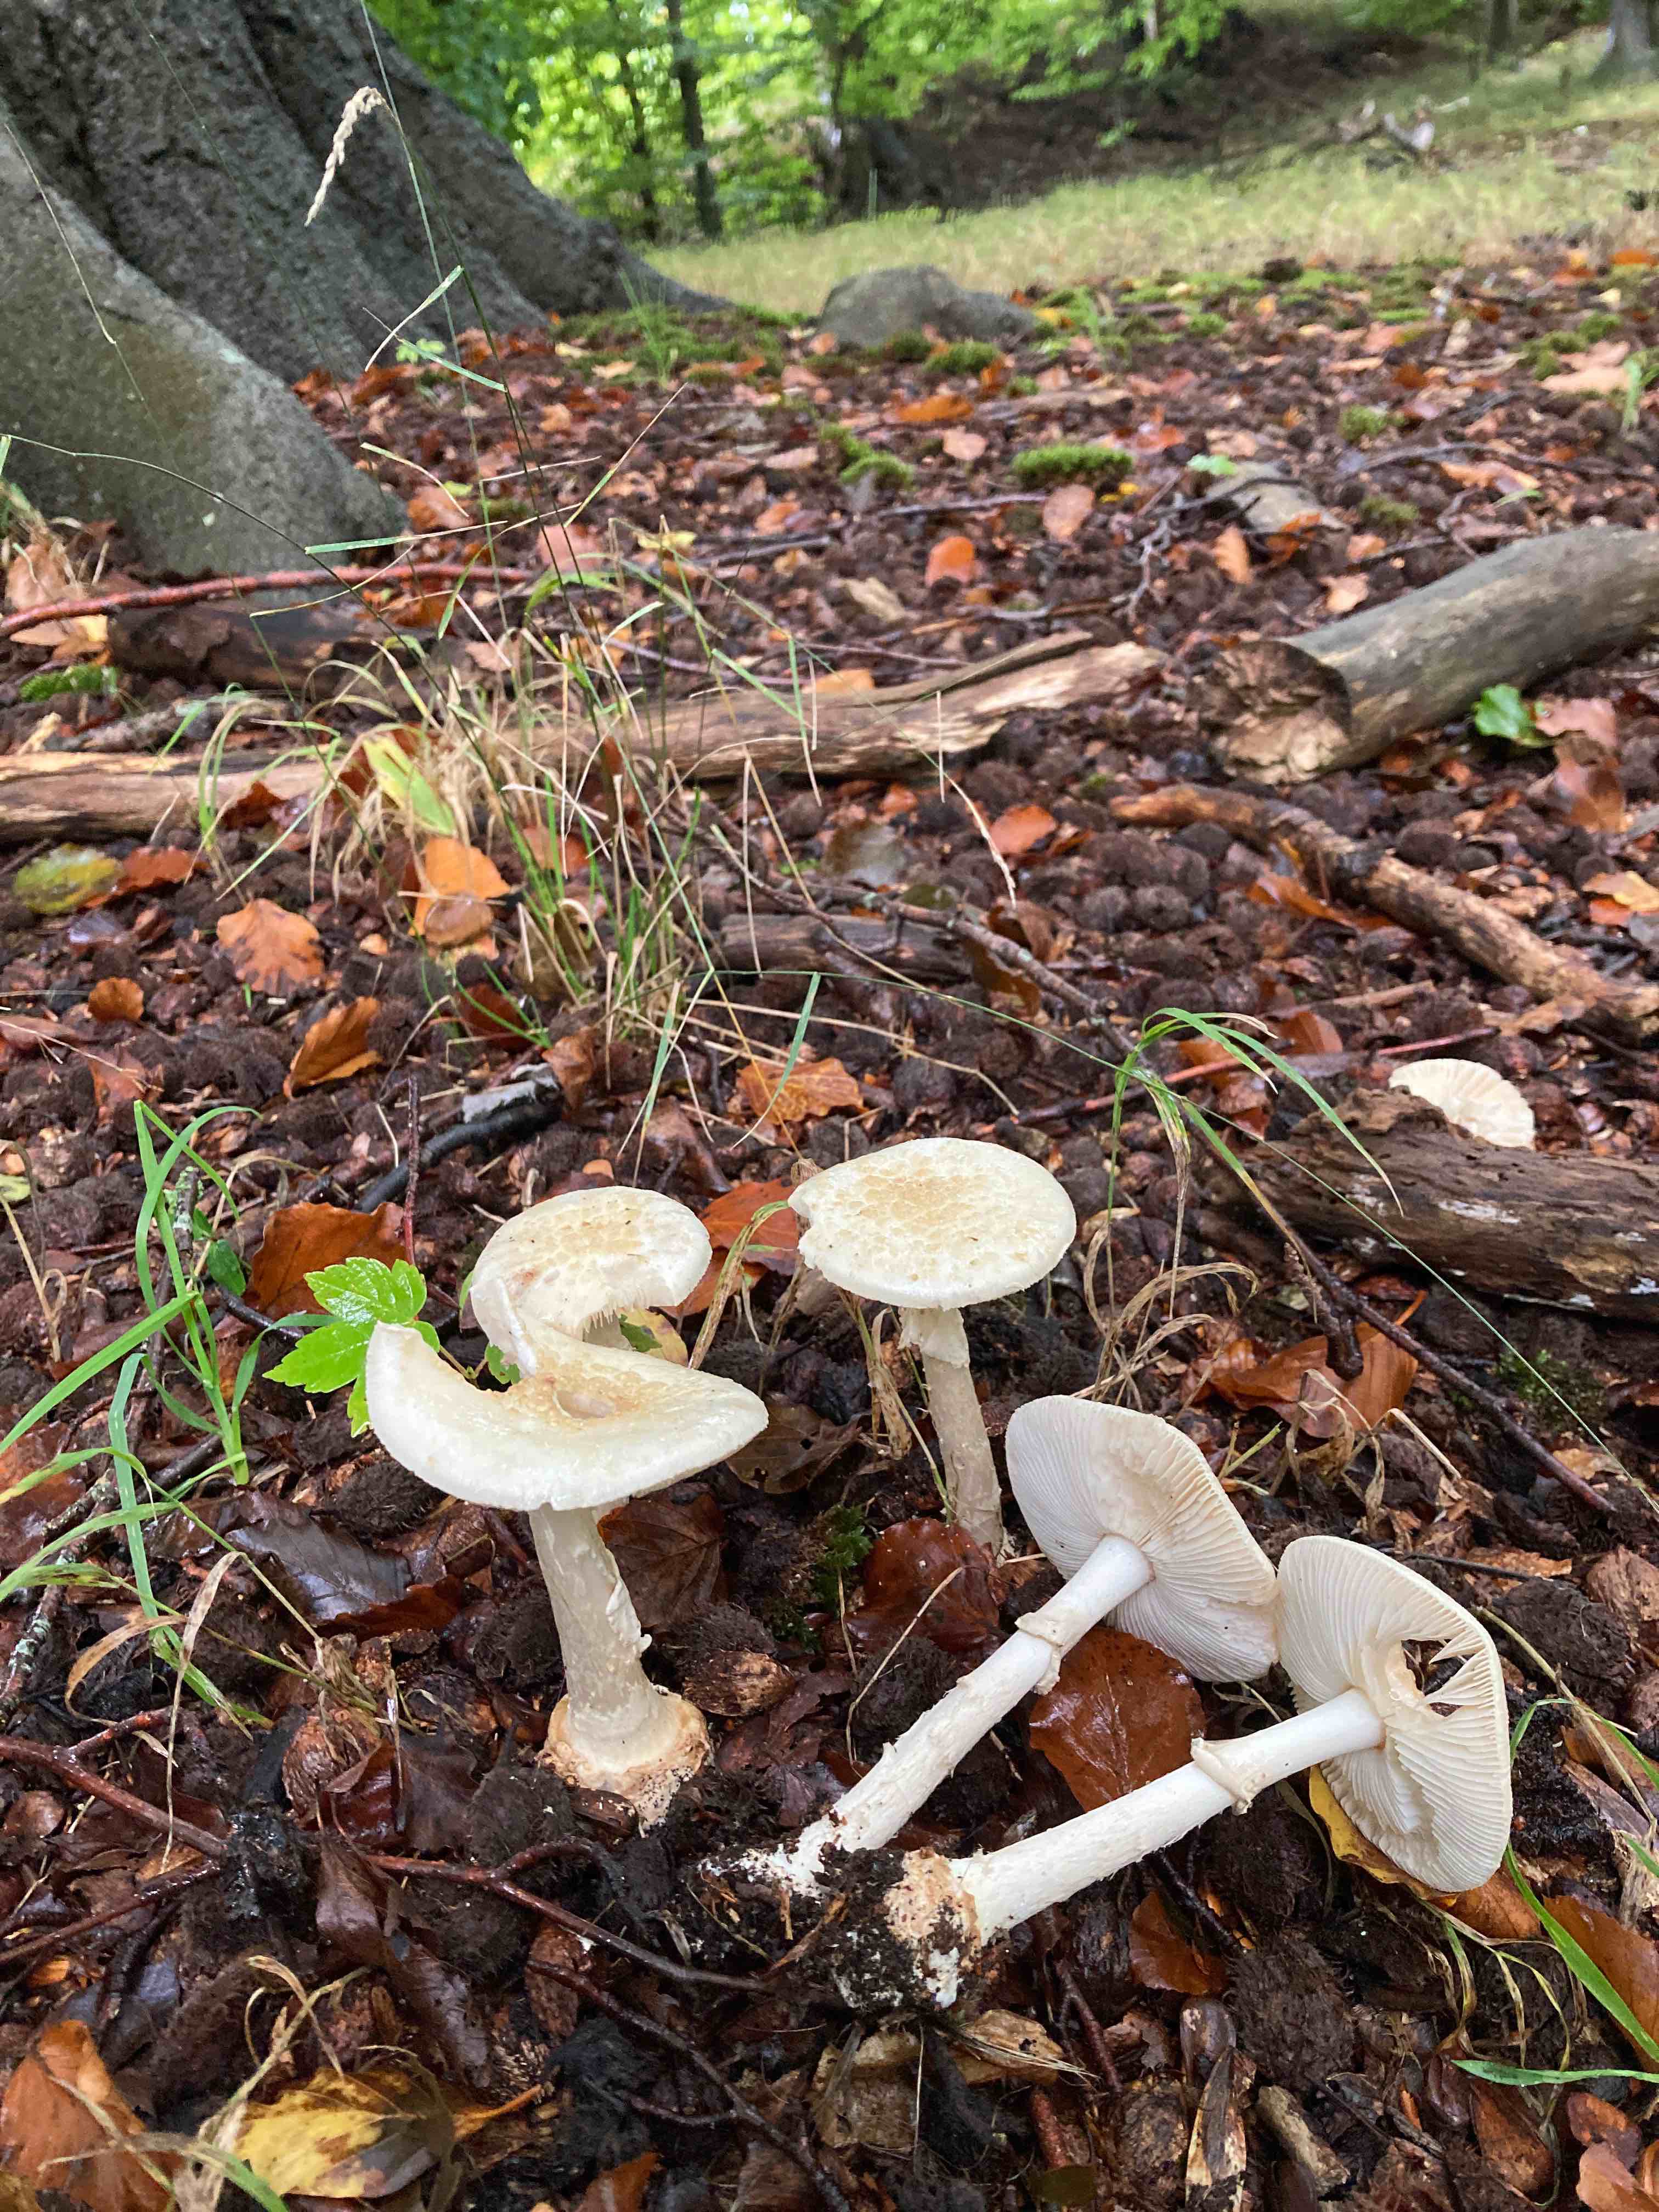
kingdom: Fungi
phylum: Basidiomycota
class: Agaricomycetes
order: Agaricales
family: Amanitaceae
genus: Amanita
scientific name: Amanita citrina
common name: kugleknoldet fluesvamp
